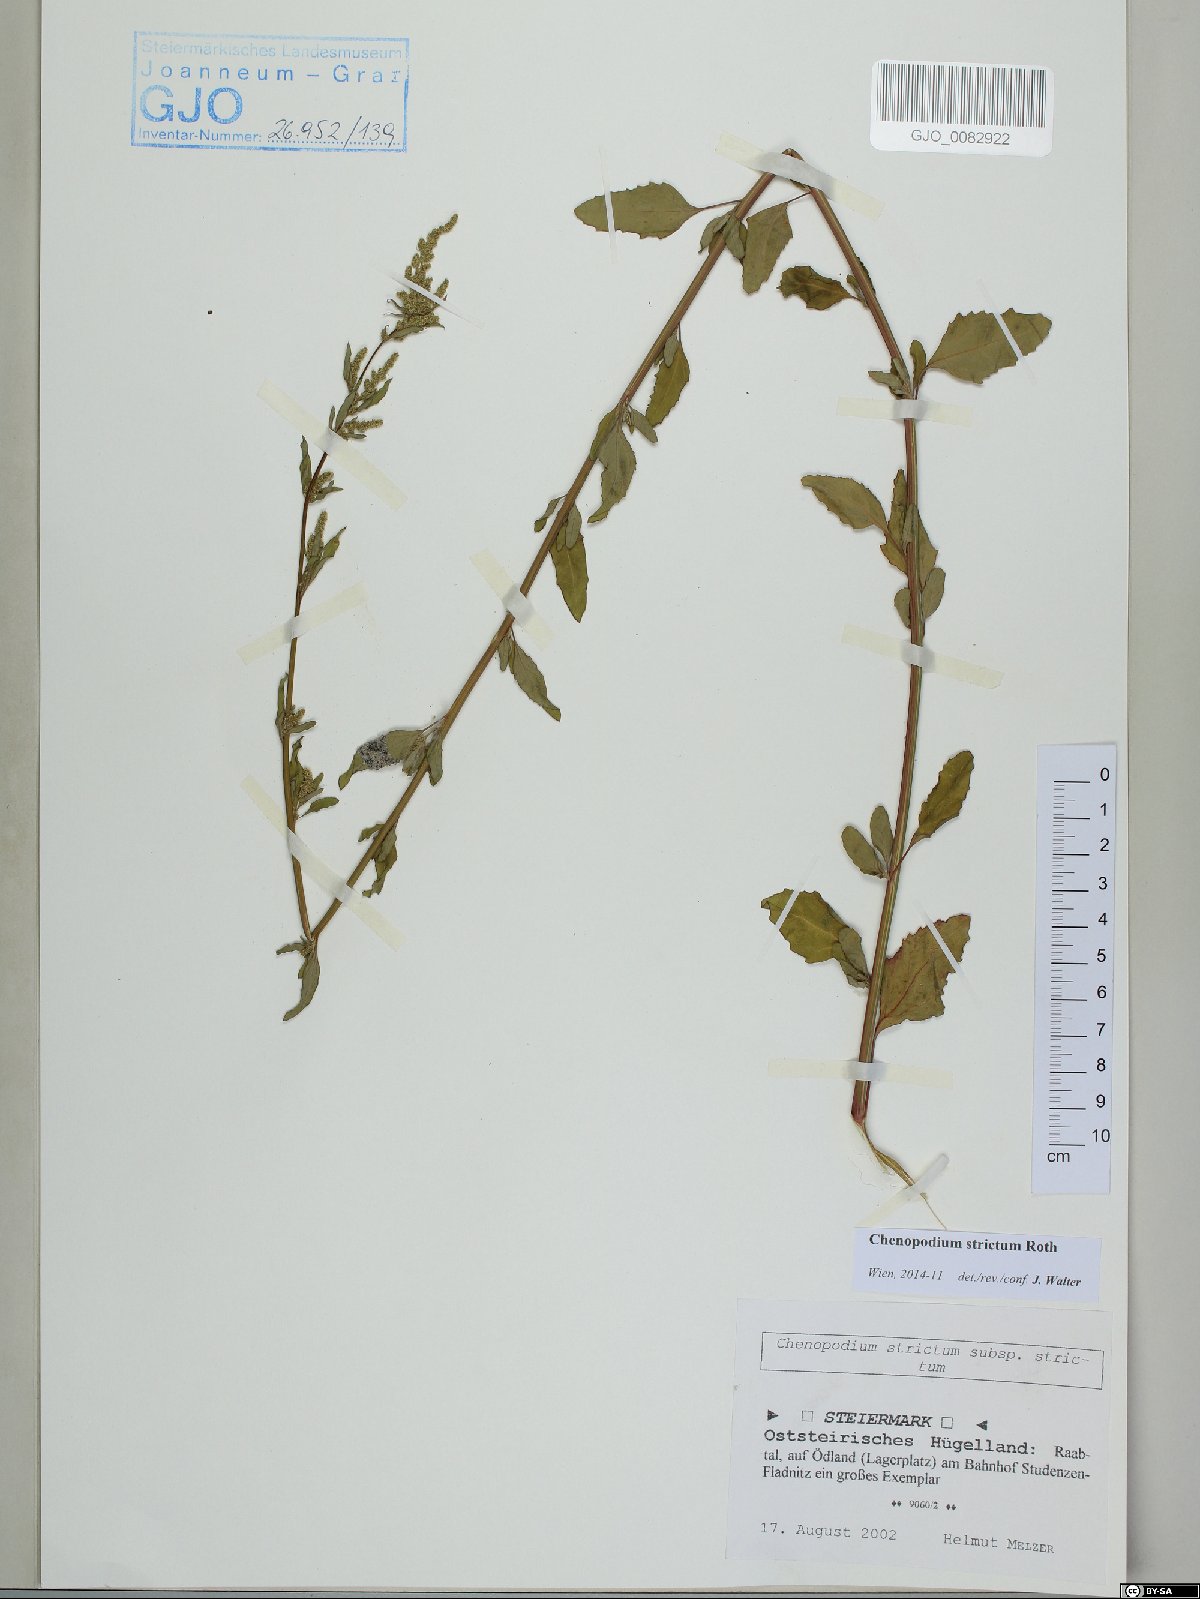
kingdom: Plantae
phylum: Tracheophyta
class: Magnoliopsida
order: Caryophyllales
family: Amaranthaceae
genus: Chenopodium
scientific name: Chenopodium album
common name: Fat-hen
